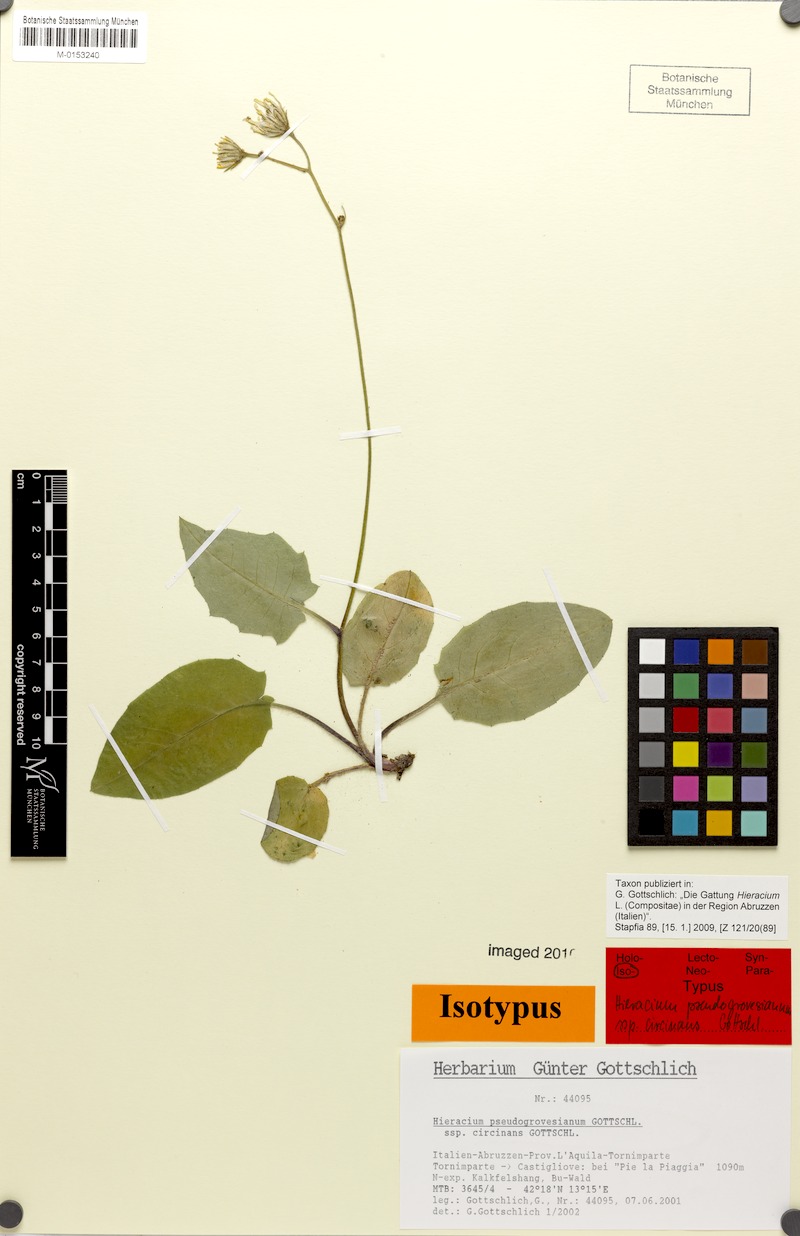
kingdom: Plantae
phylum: Tracheophyta
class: Magnoliopsida
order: Asterales
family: Asteraceae
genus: Hieracium
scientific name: Hieracium pseudogrovesianum
